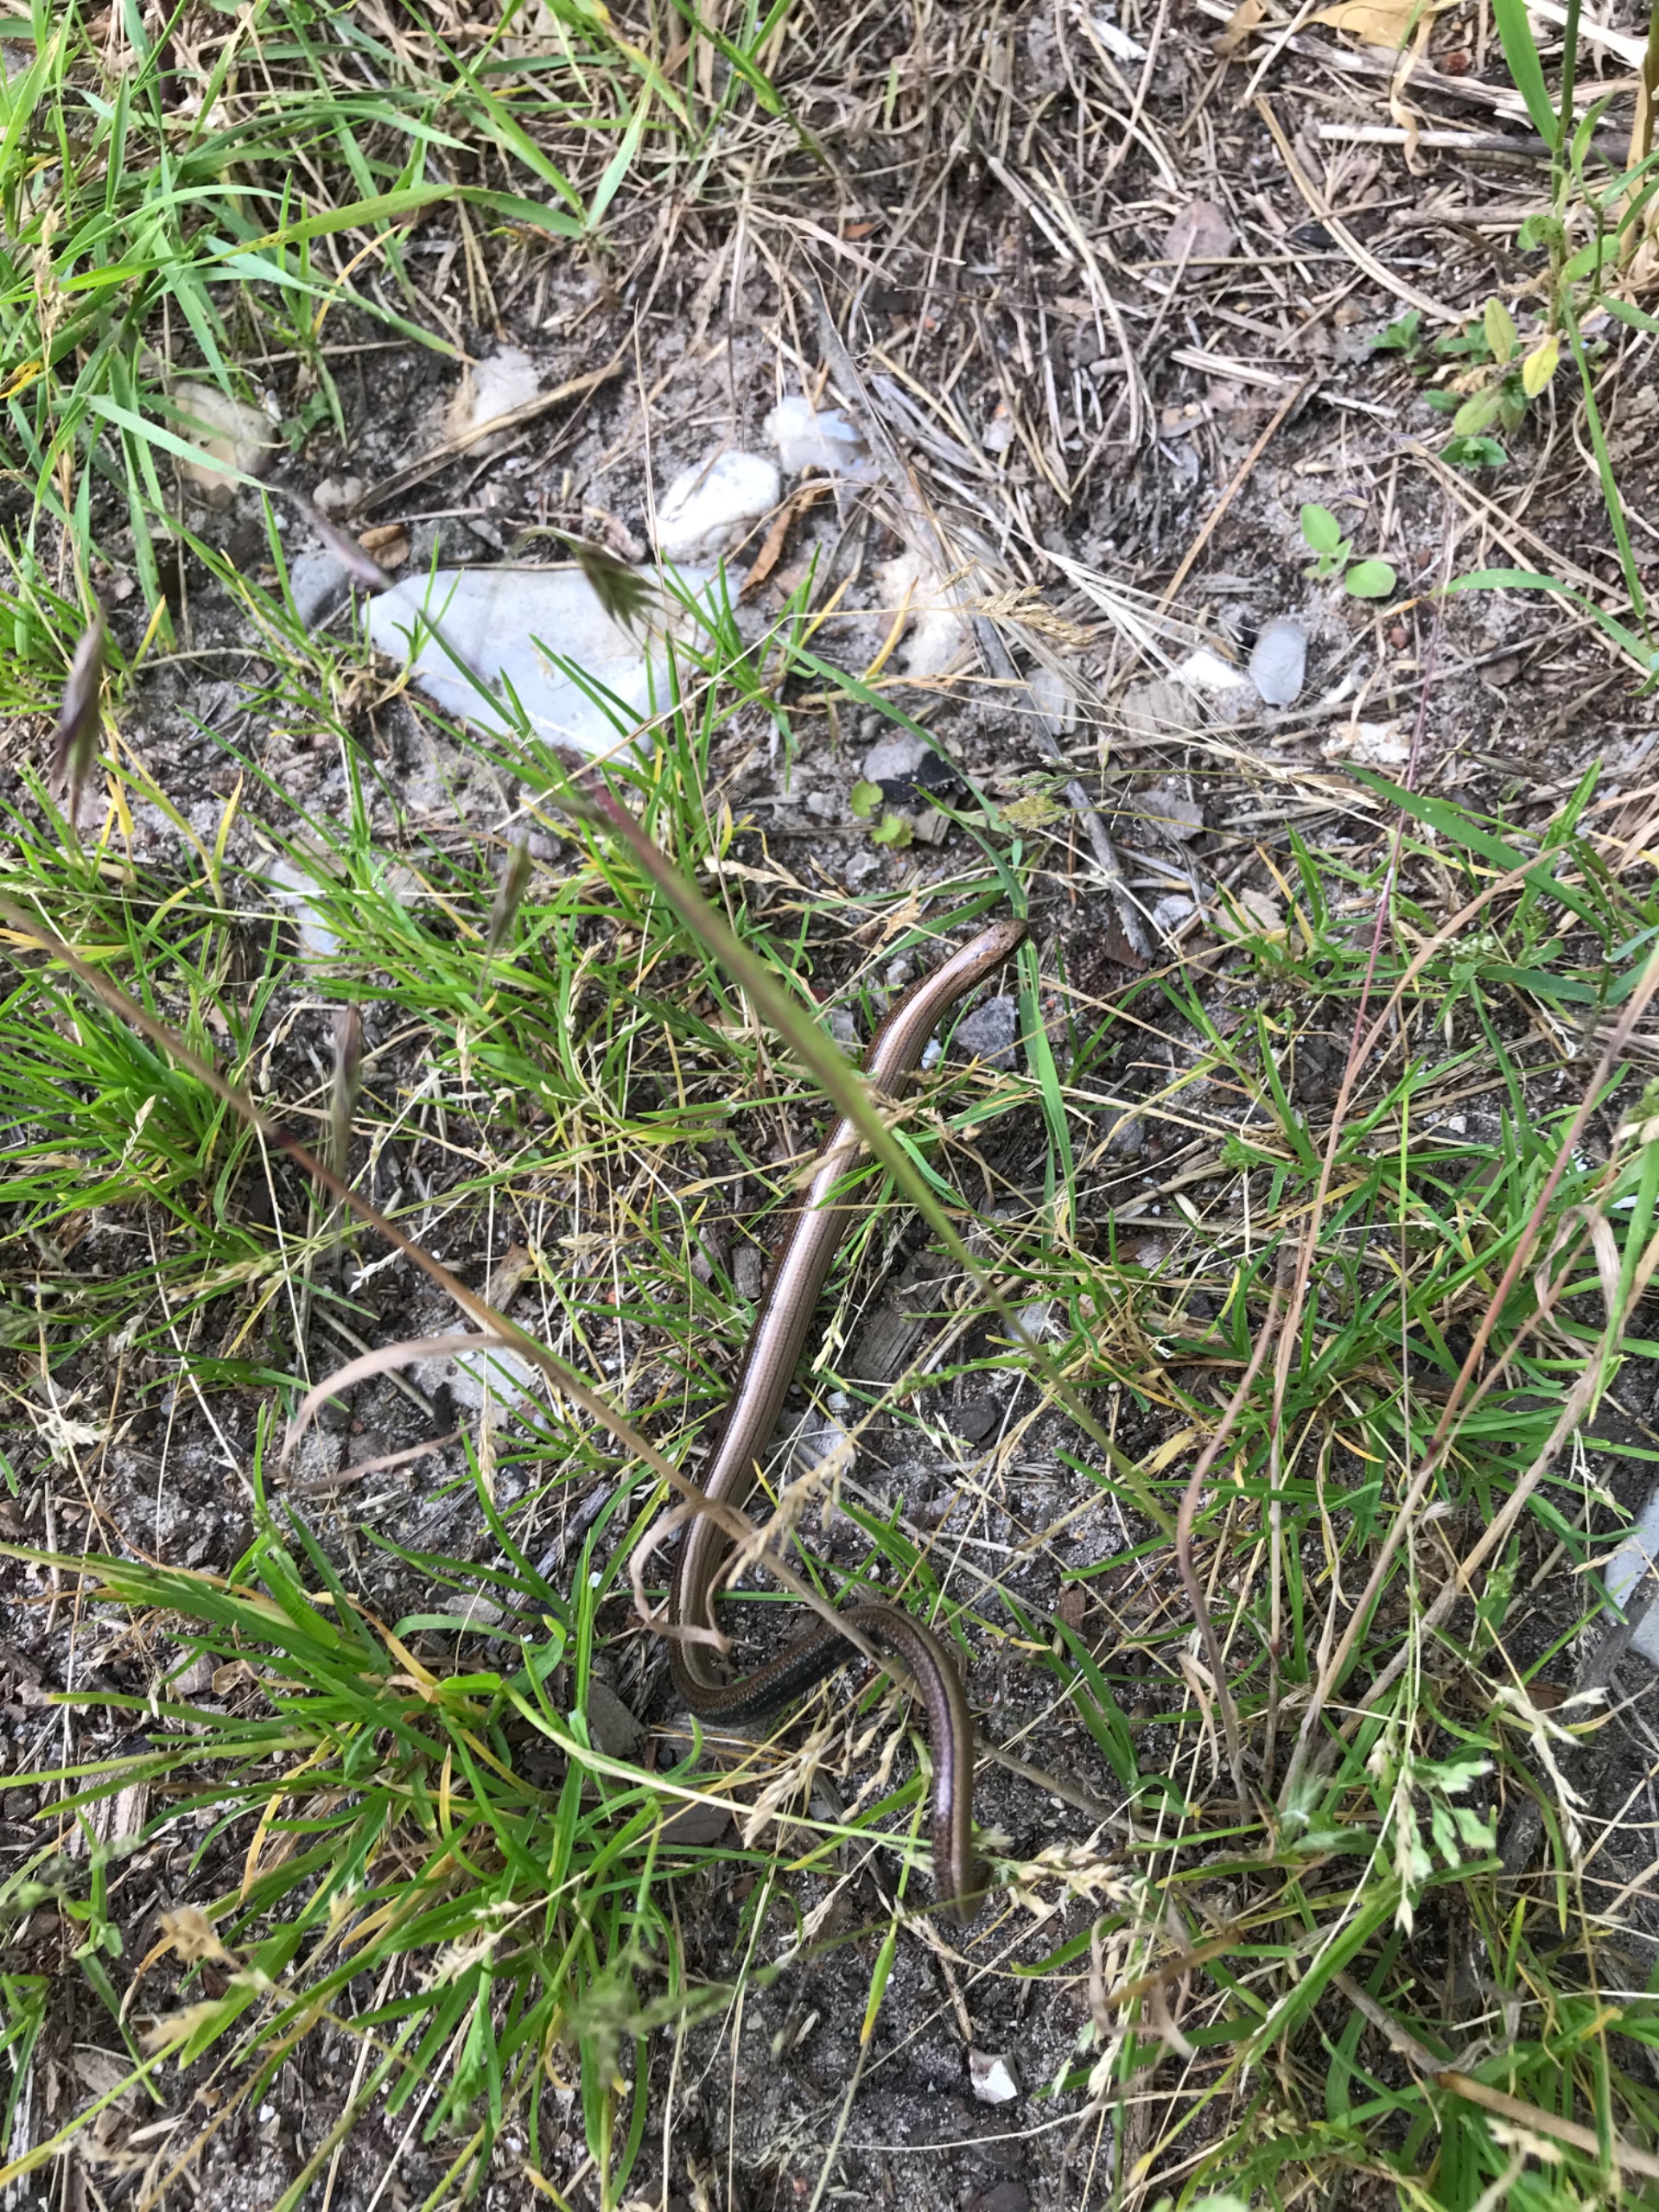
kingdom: Animalia
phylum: Chordata
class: Squamata
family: Anguidae
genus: Anguis
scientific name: Anguis fragilis
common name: Stålorm
